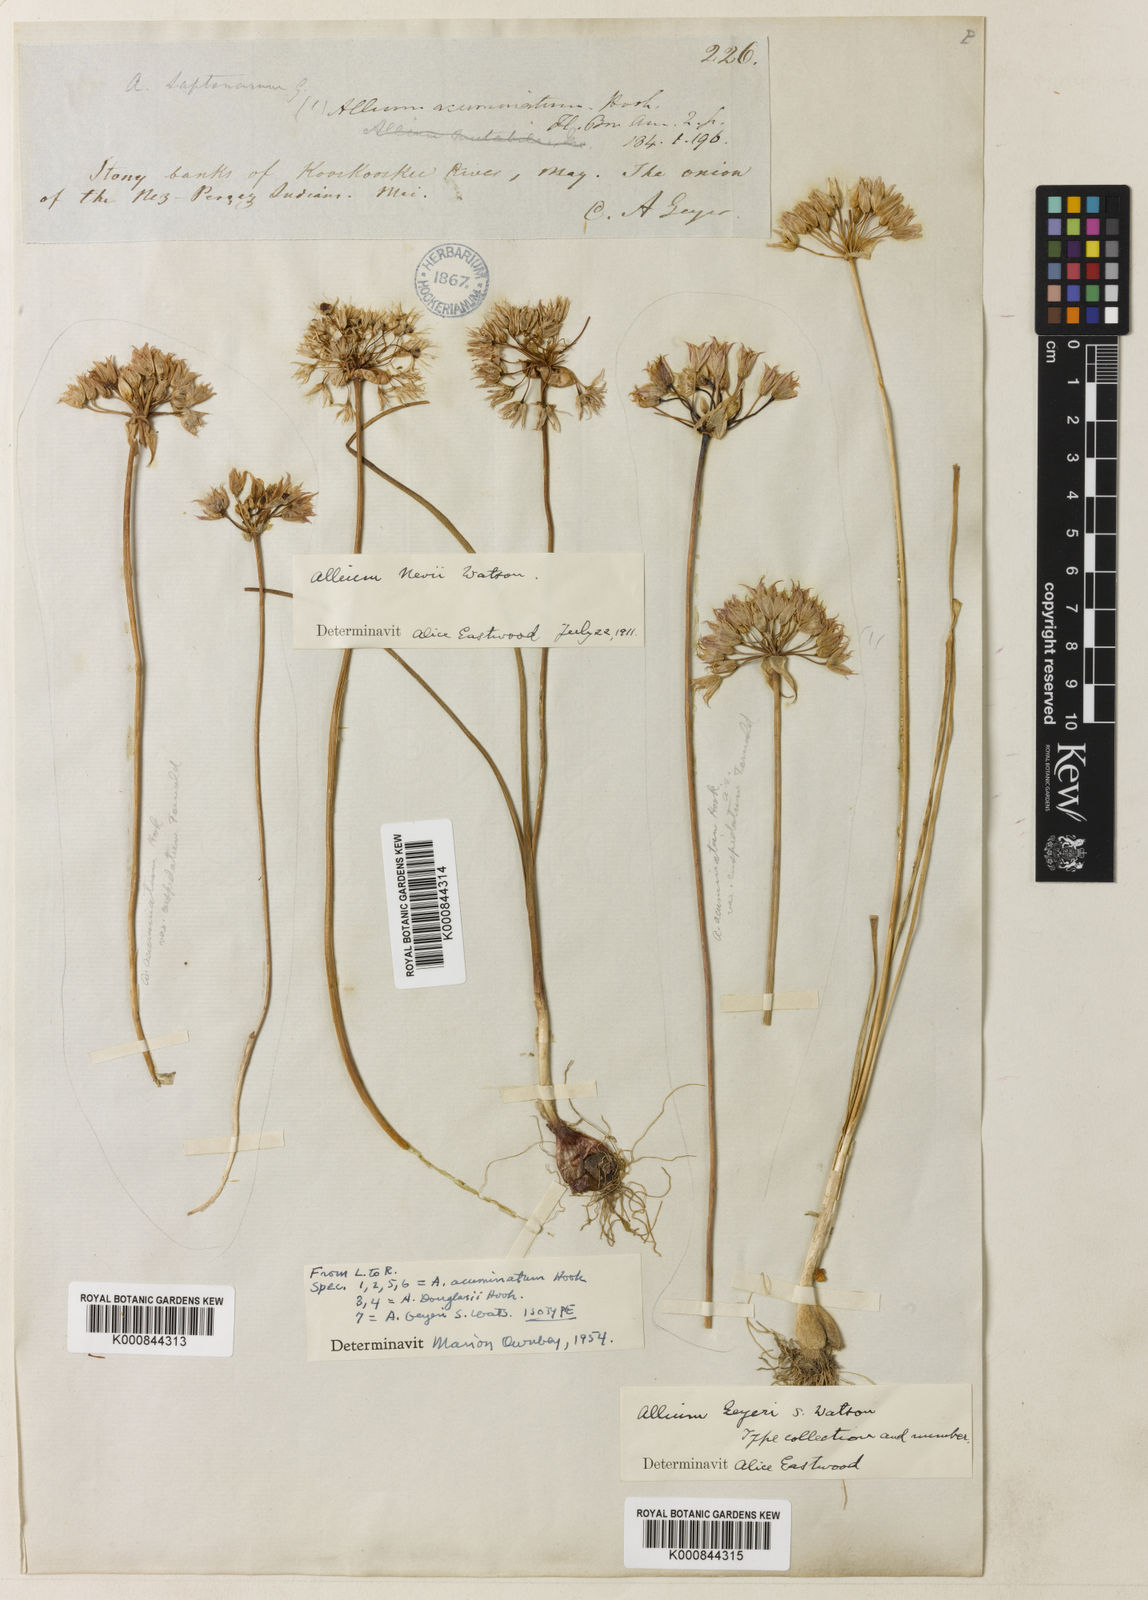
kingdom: Plantae
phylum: Tracheophyta
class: Liliopsida
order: Asparagales
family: Amaryllidaceae
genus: Allium
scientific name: Allium geyeri
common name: Geyer's onion
